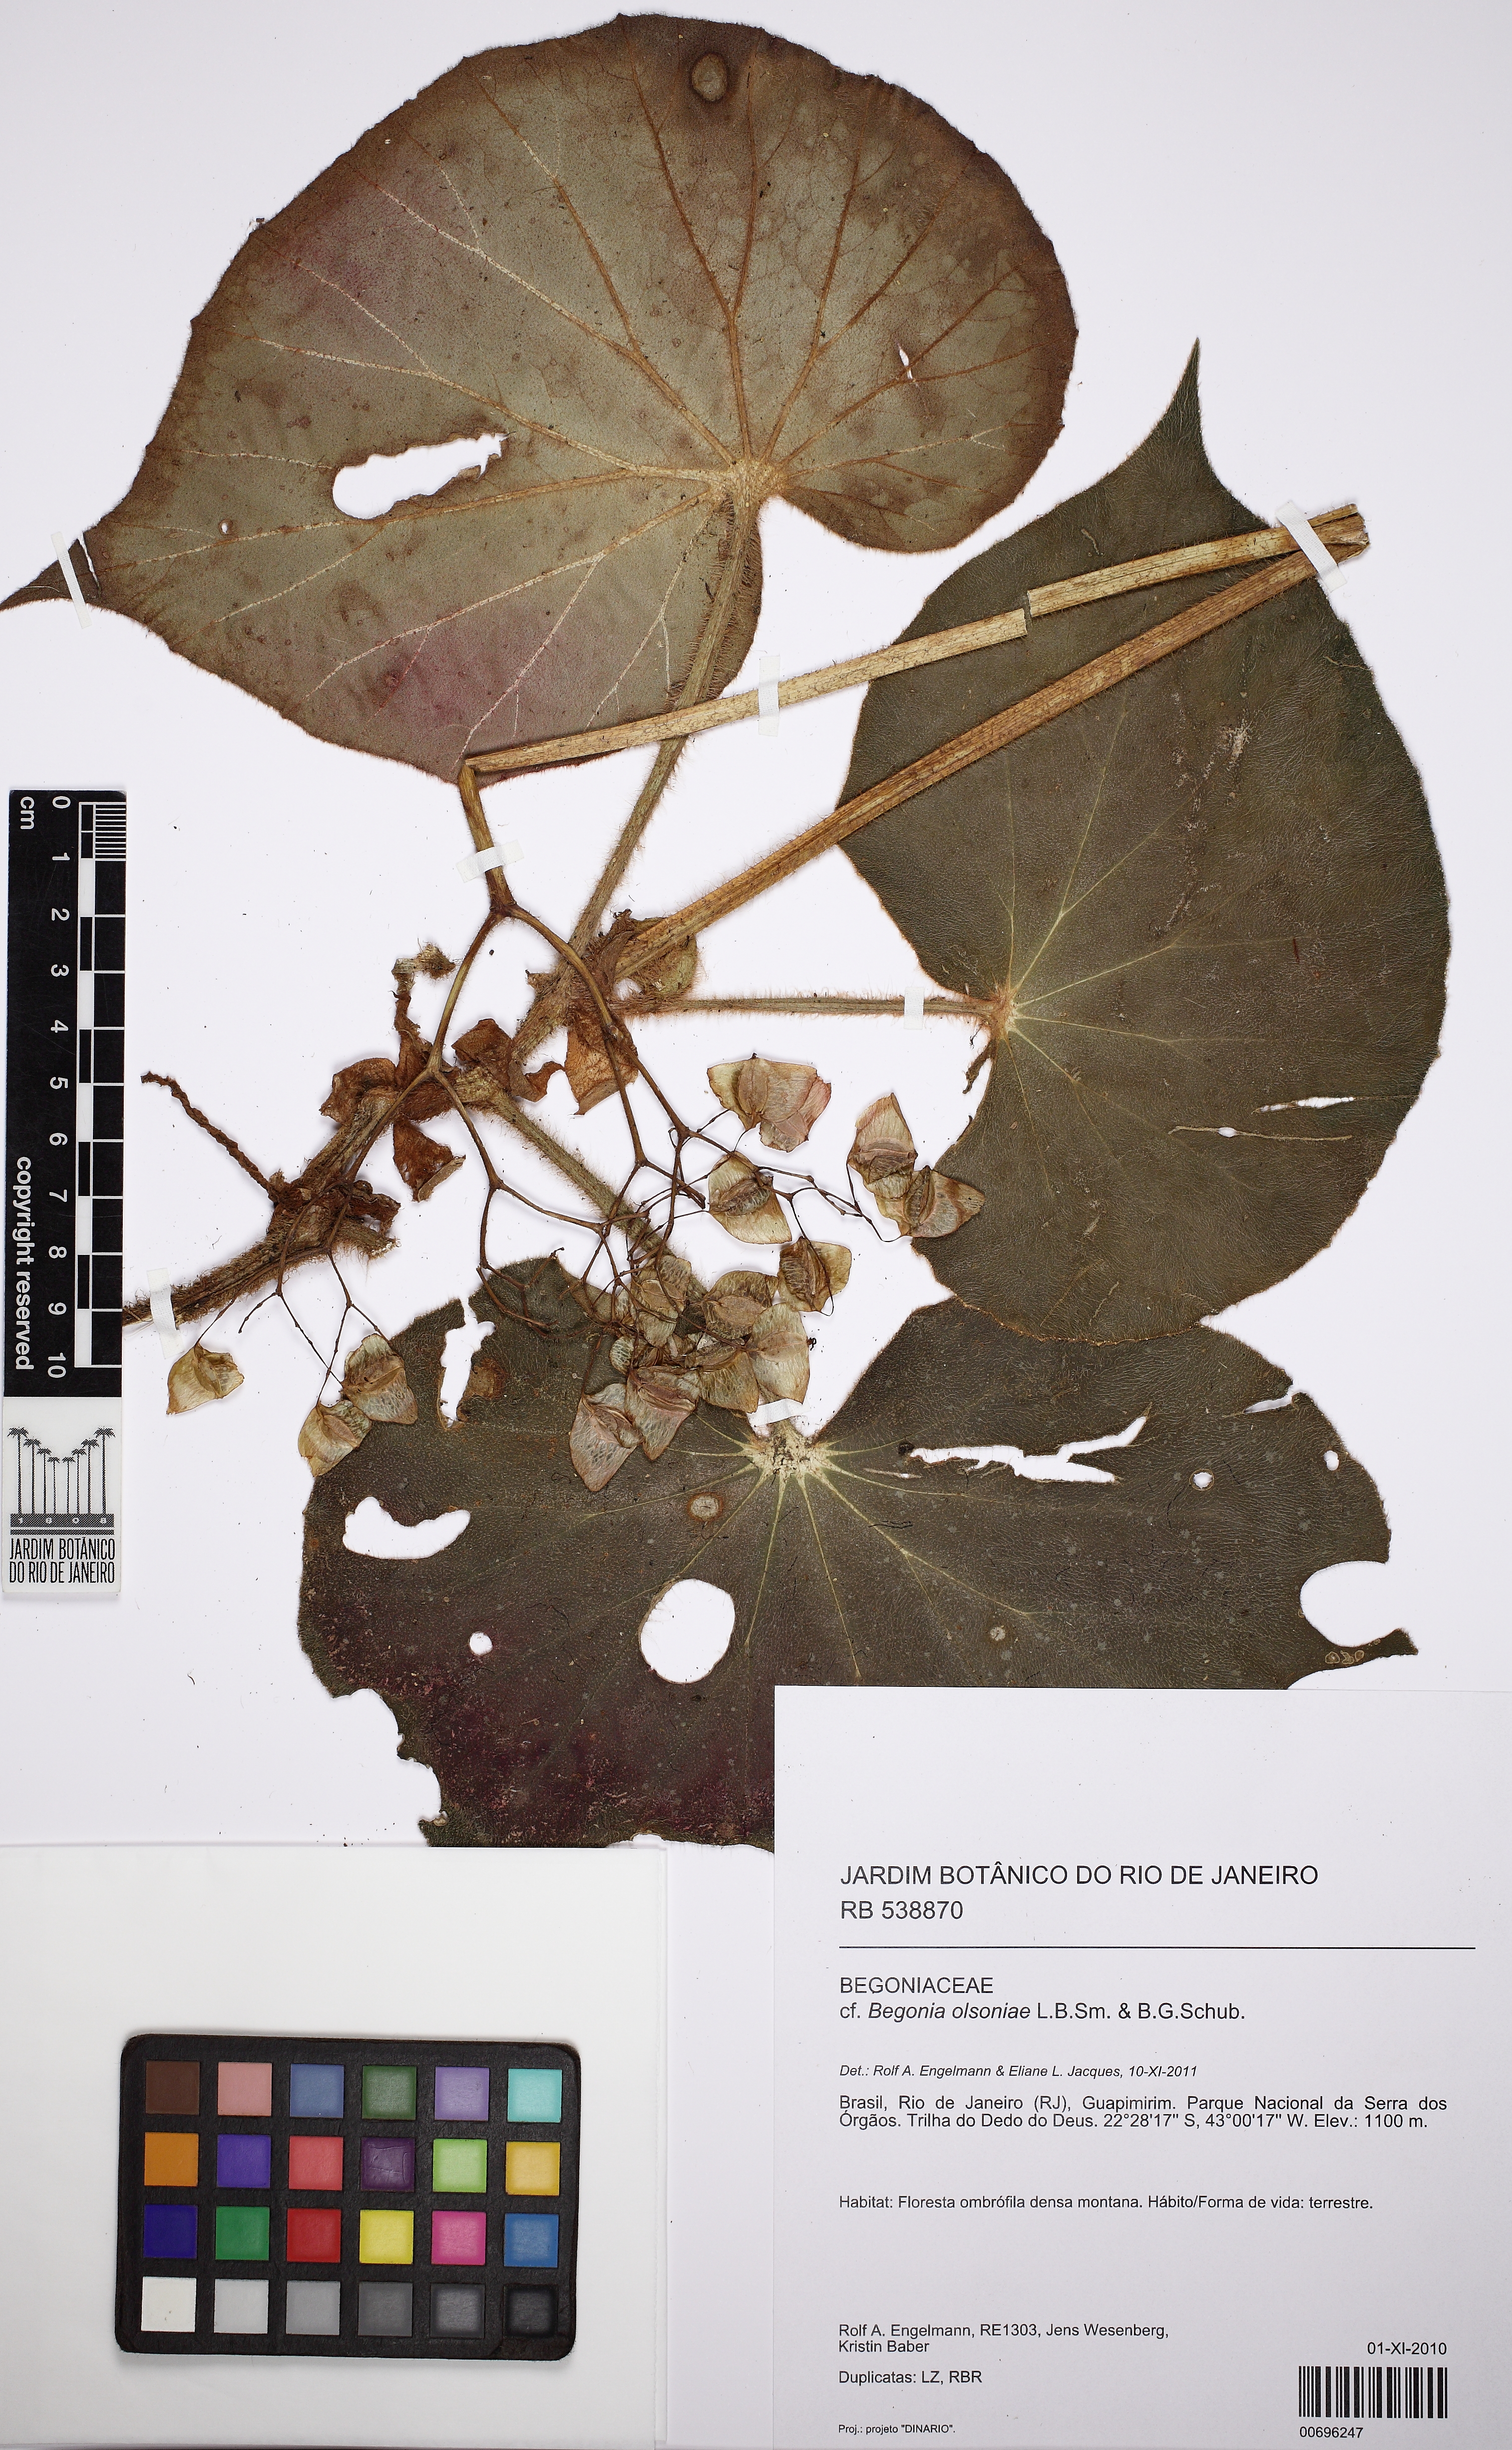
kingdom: Plantae
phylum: Tracheophyta
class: Magnoliopsida
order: Cucurbitales
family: Begoniaceae
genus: Begonia
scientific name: Begonia olsoniae
